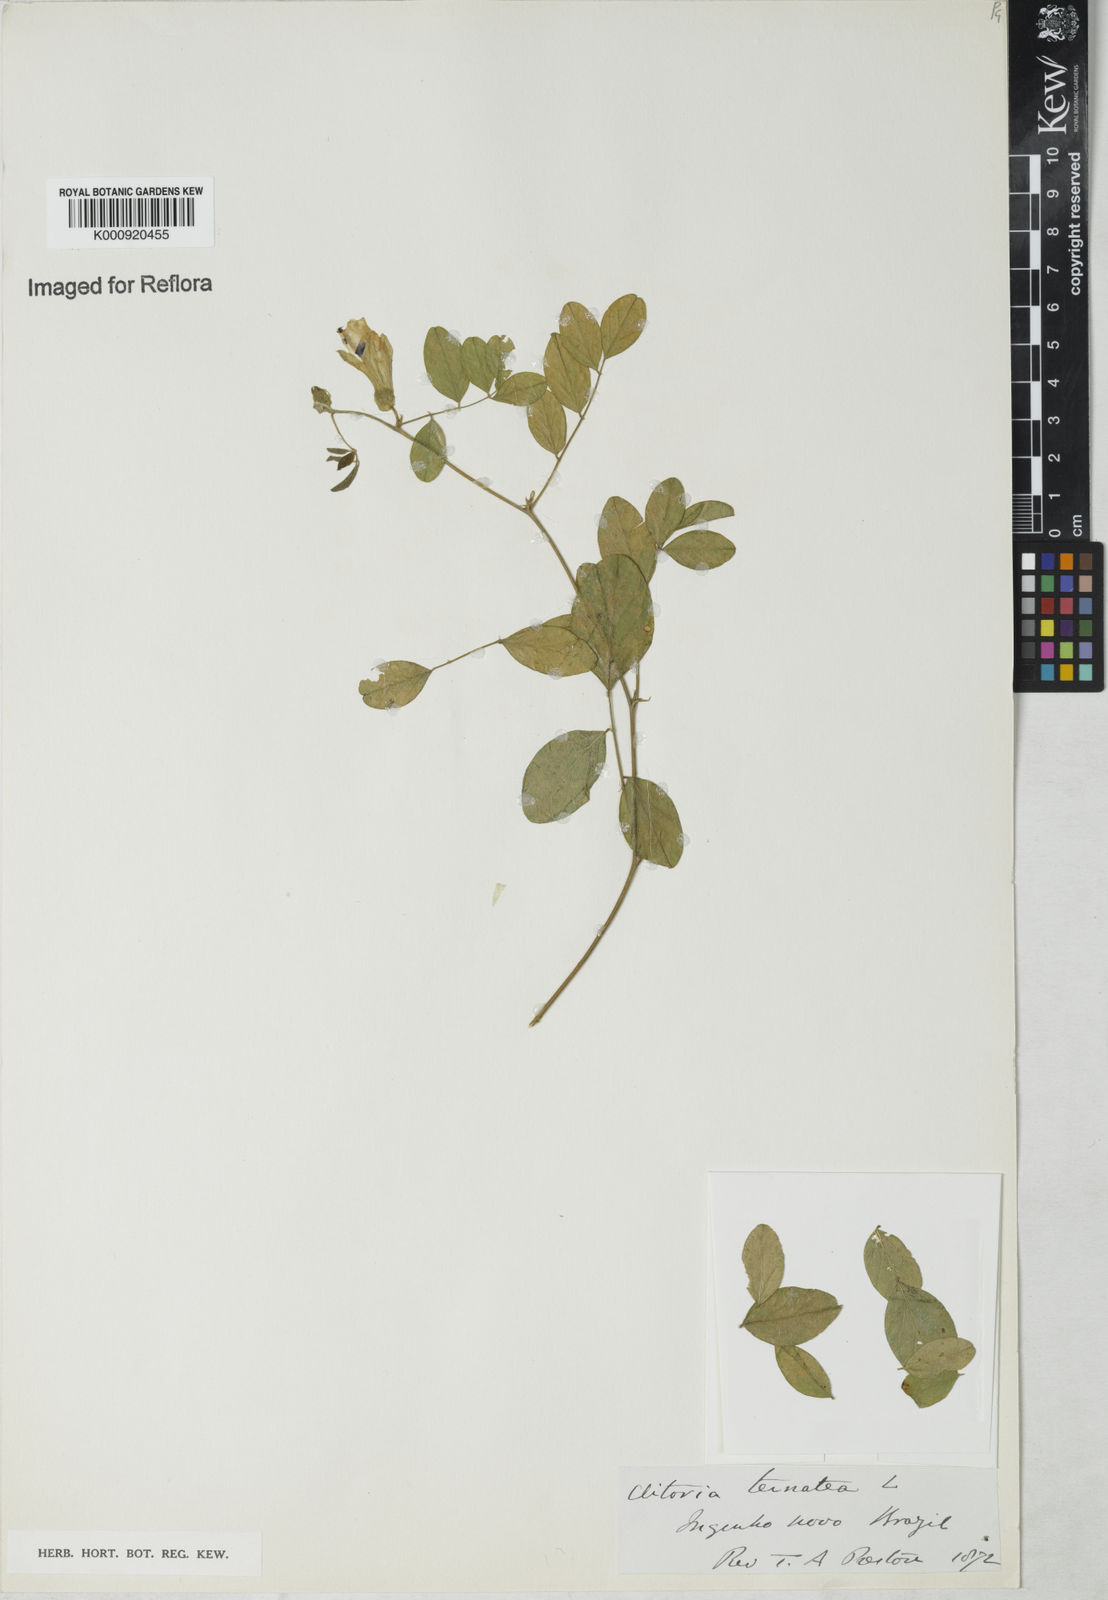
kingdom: Plantae
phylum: Tracheophyta
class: Magnoliopsida
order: Fabales
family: Fabaceae
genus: Clitoria
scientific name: Clitoria ternatea
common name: Asian pigeonwings
